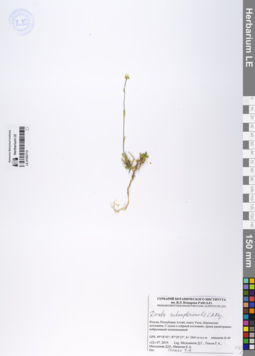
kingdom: Plantae
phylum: Tracheophyta
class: Magnoliopsida
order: Brassicales
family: Brassicaceae
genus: Draba
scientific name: Draba subamplexicaulis
